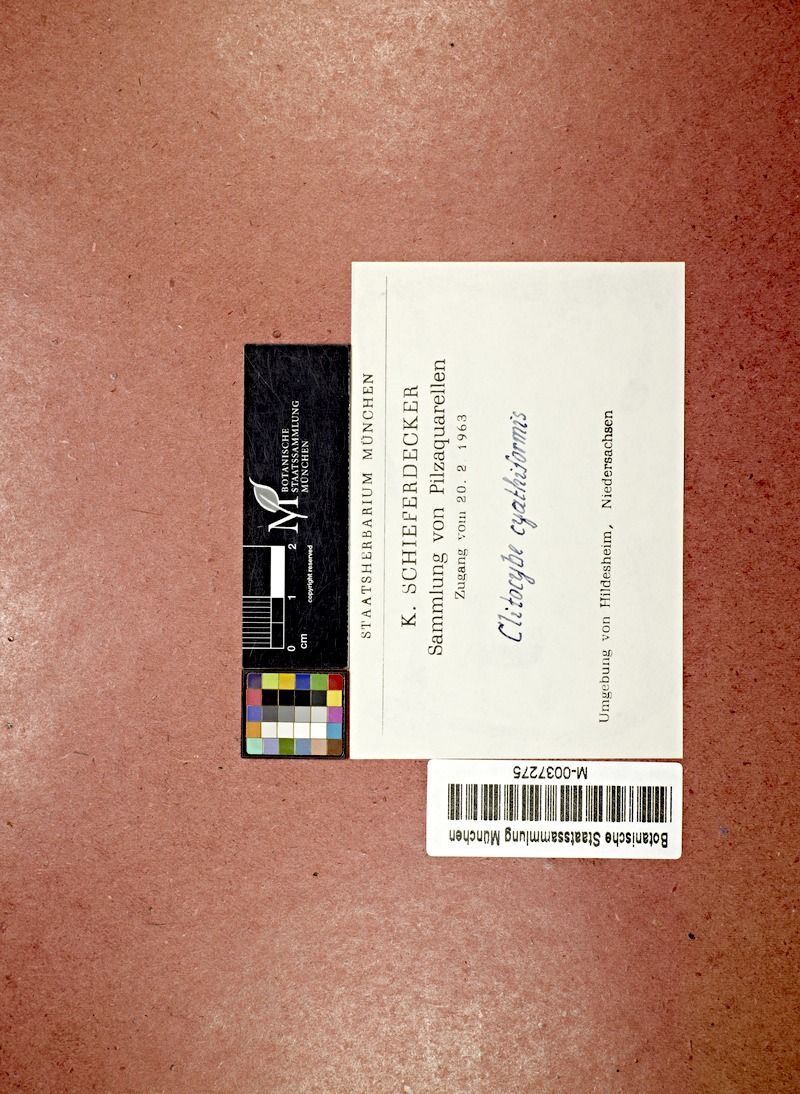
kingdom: Fungi
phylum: Basidiomycota
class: Agaricomycetes
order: Agaricales
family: Pseudoclitocybaceae
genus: Pseudoclitocybe
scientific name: Pseudoclitocybe cyathiformis
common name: Goblet
